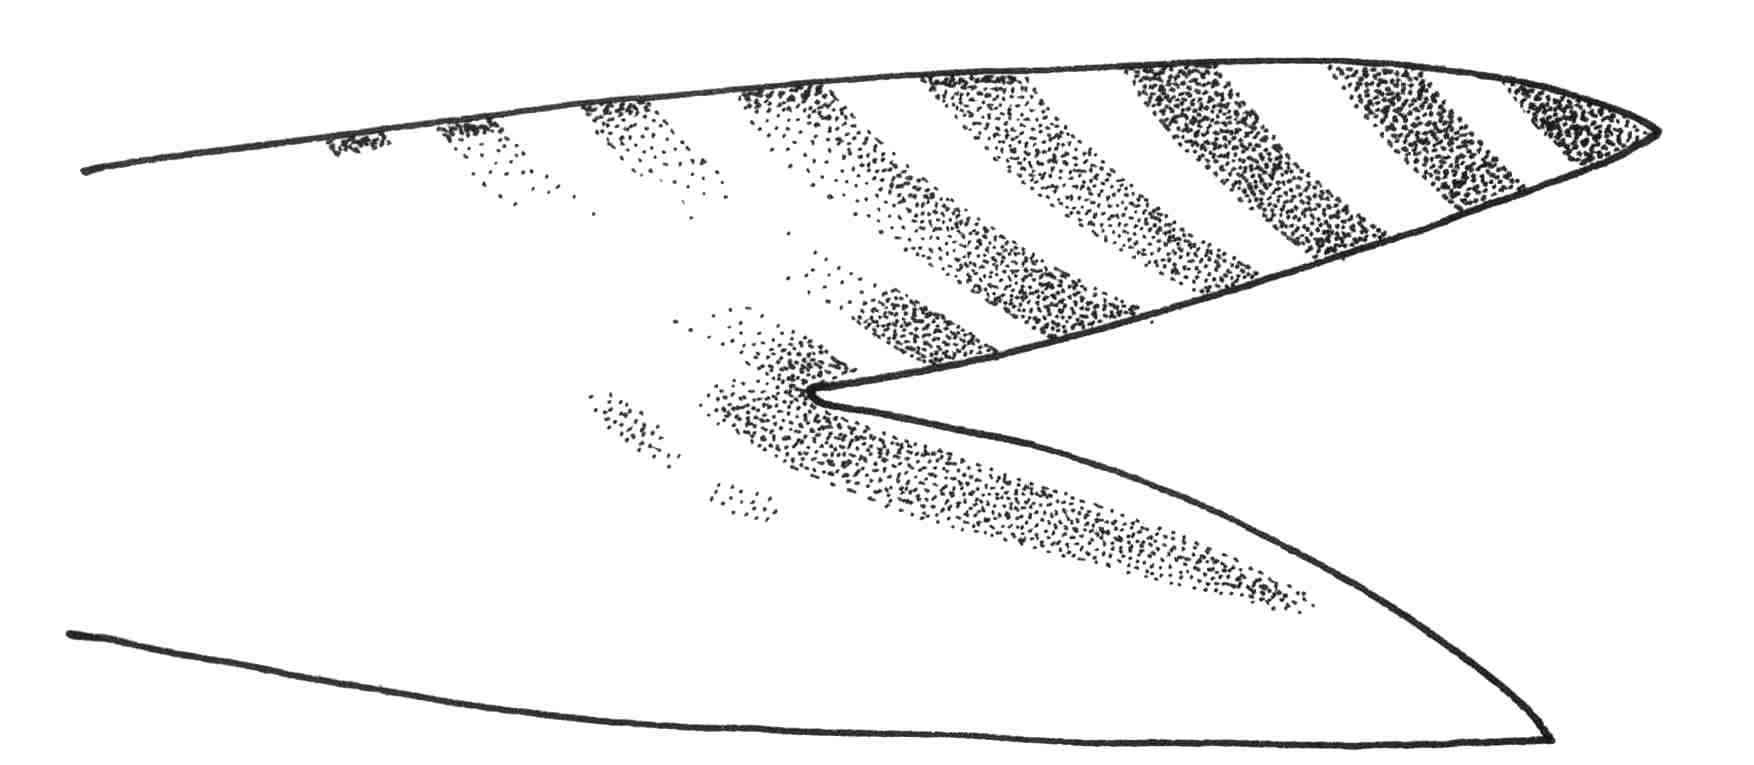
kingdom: Animalia
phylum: Chordata
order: Perciformes
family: Mullidae
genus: Upeneus
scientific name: Upeneus moluccensis
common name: Goldband goatfish
